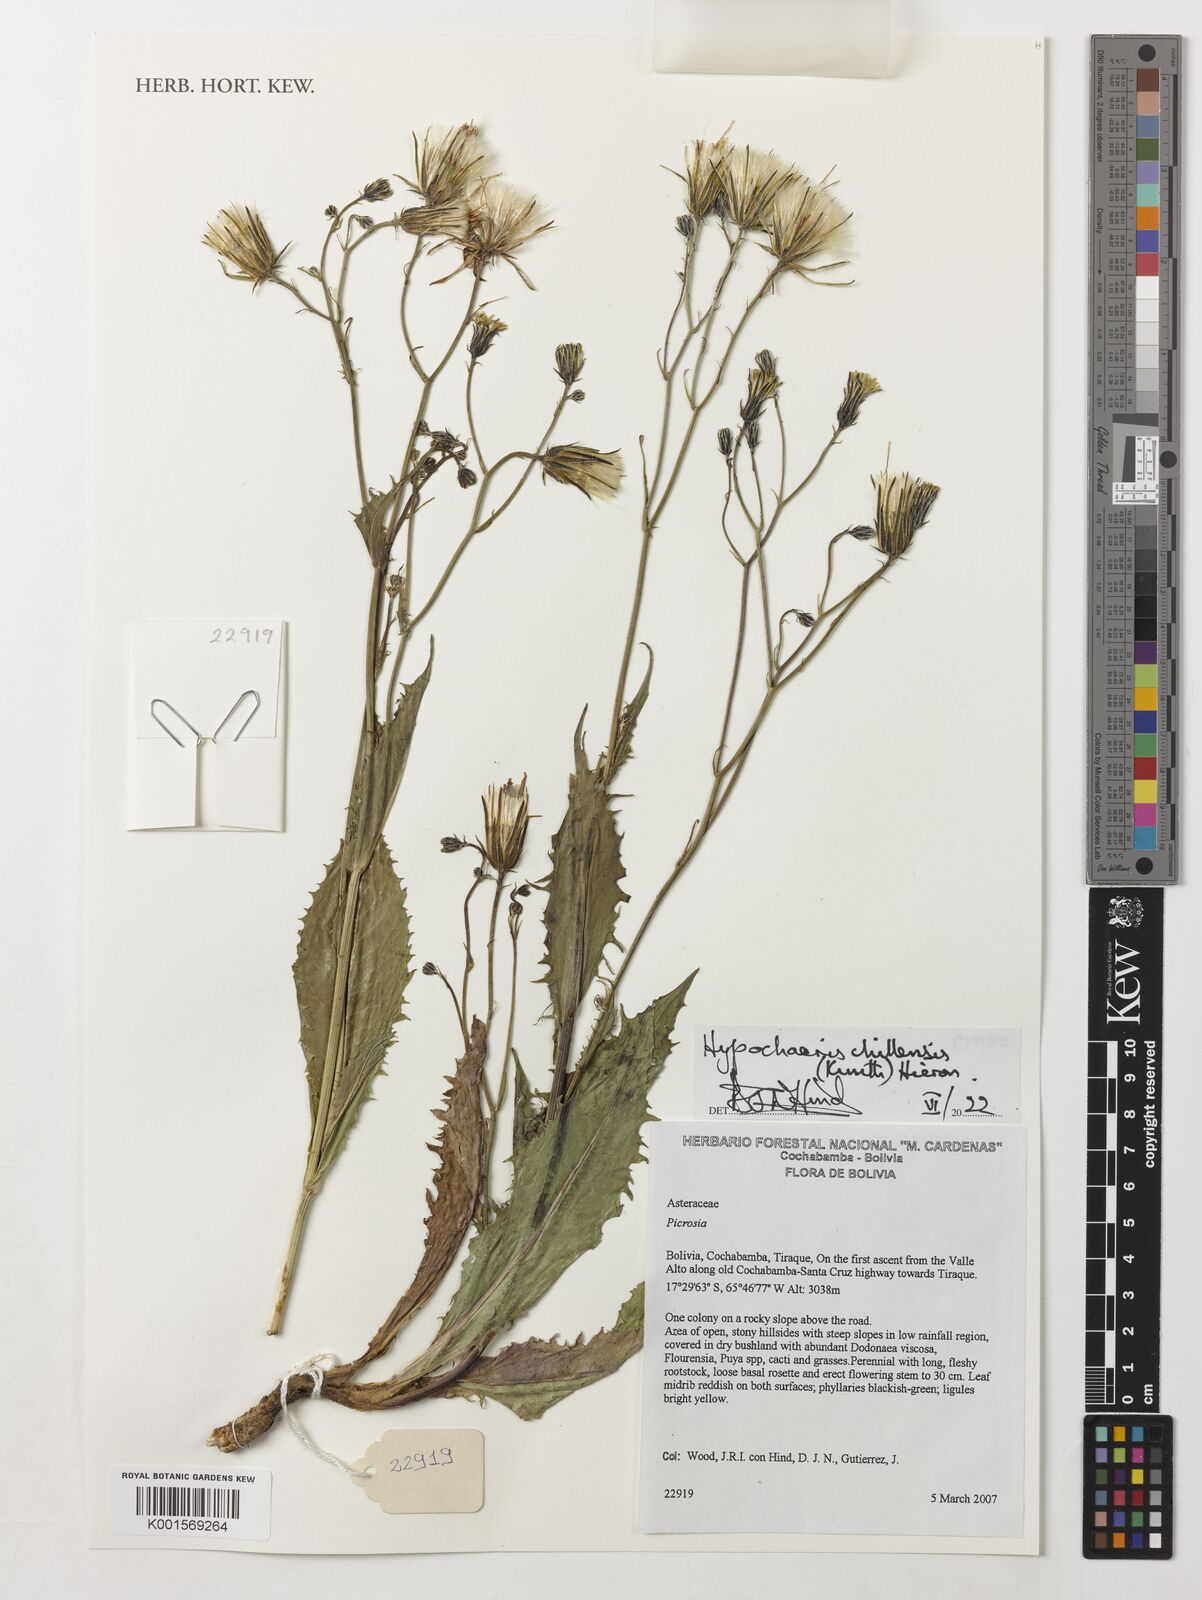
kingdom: Plantae
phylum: Tracheophyta
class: Magnoliopsida
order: Asterales
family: Asteraceae
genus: Hypochaeris
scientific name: Hypochaeris chillensis
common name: Brazilian cat's ear
